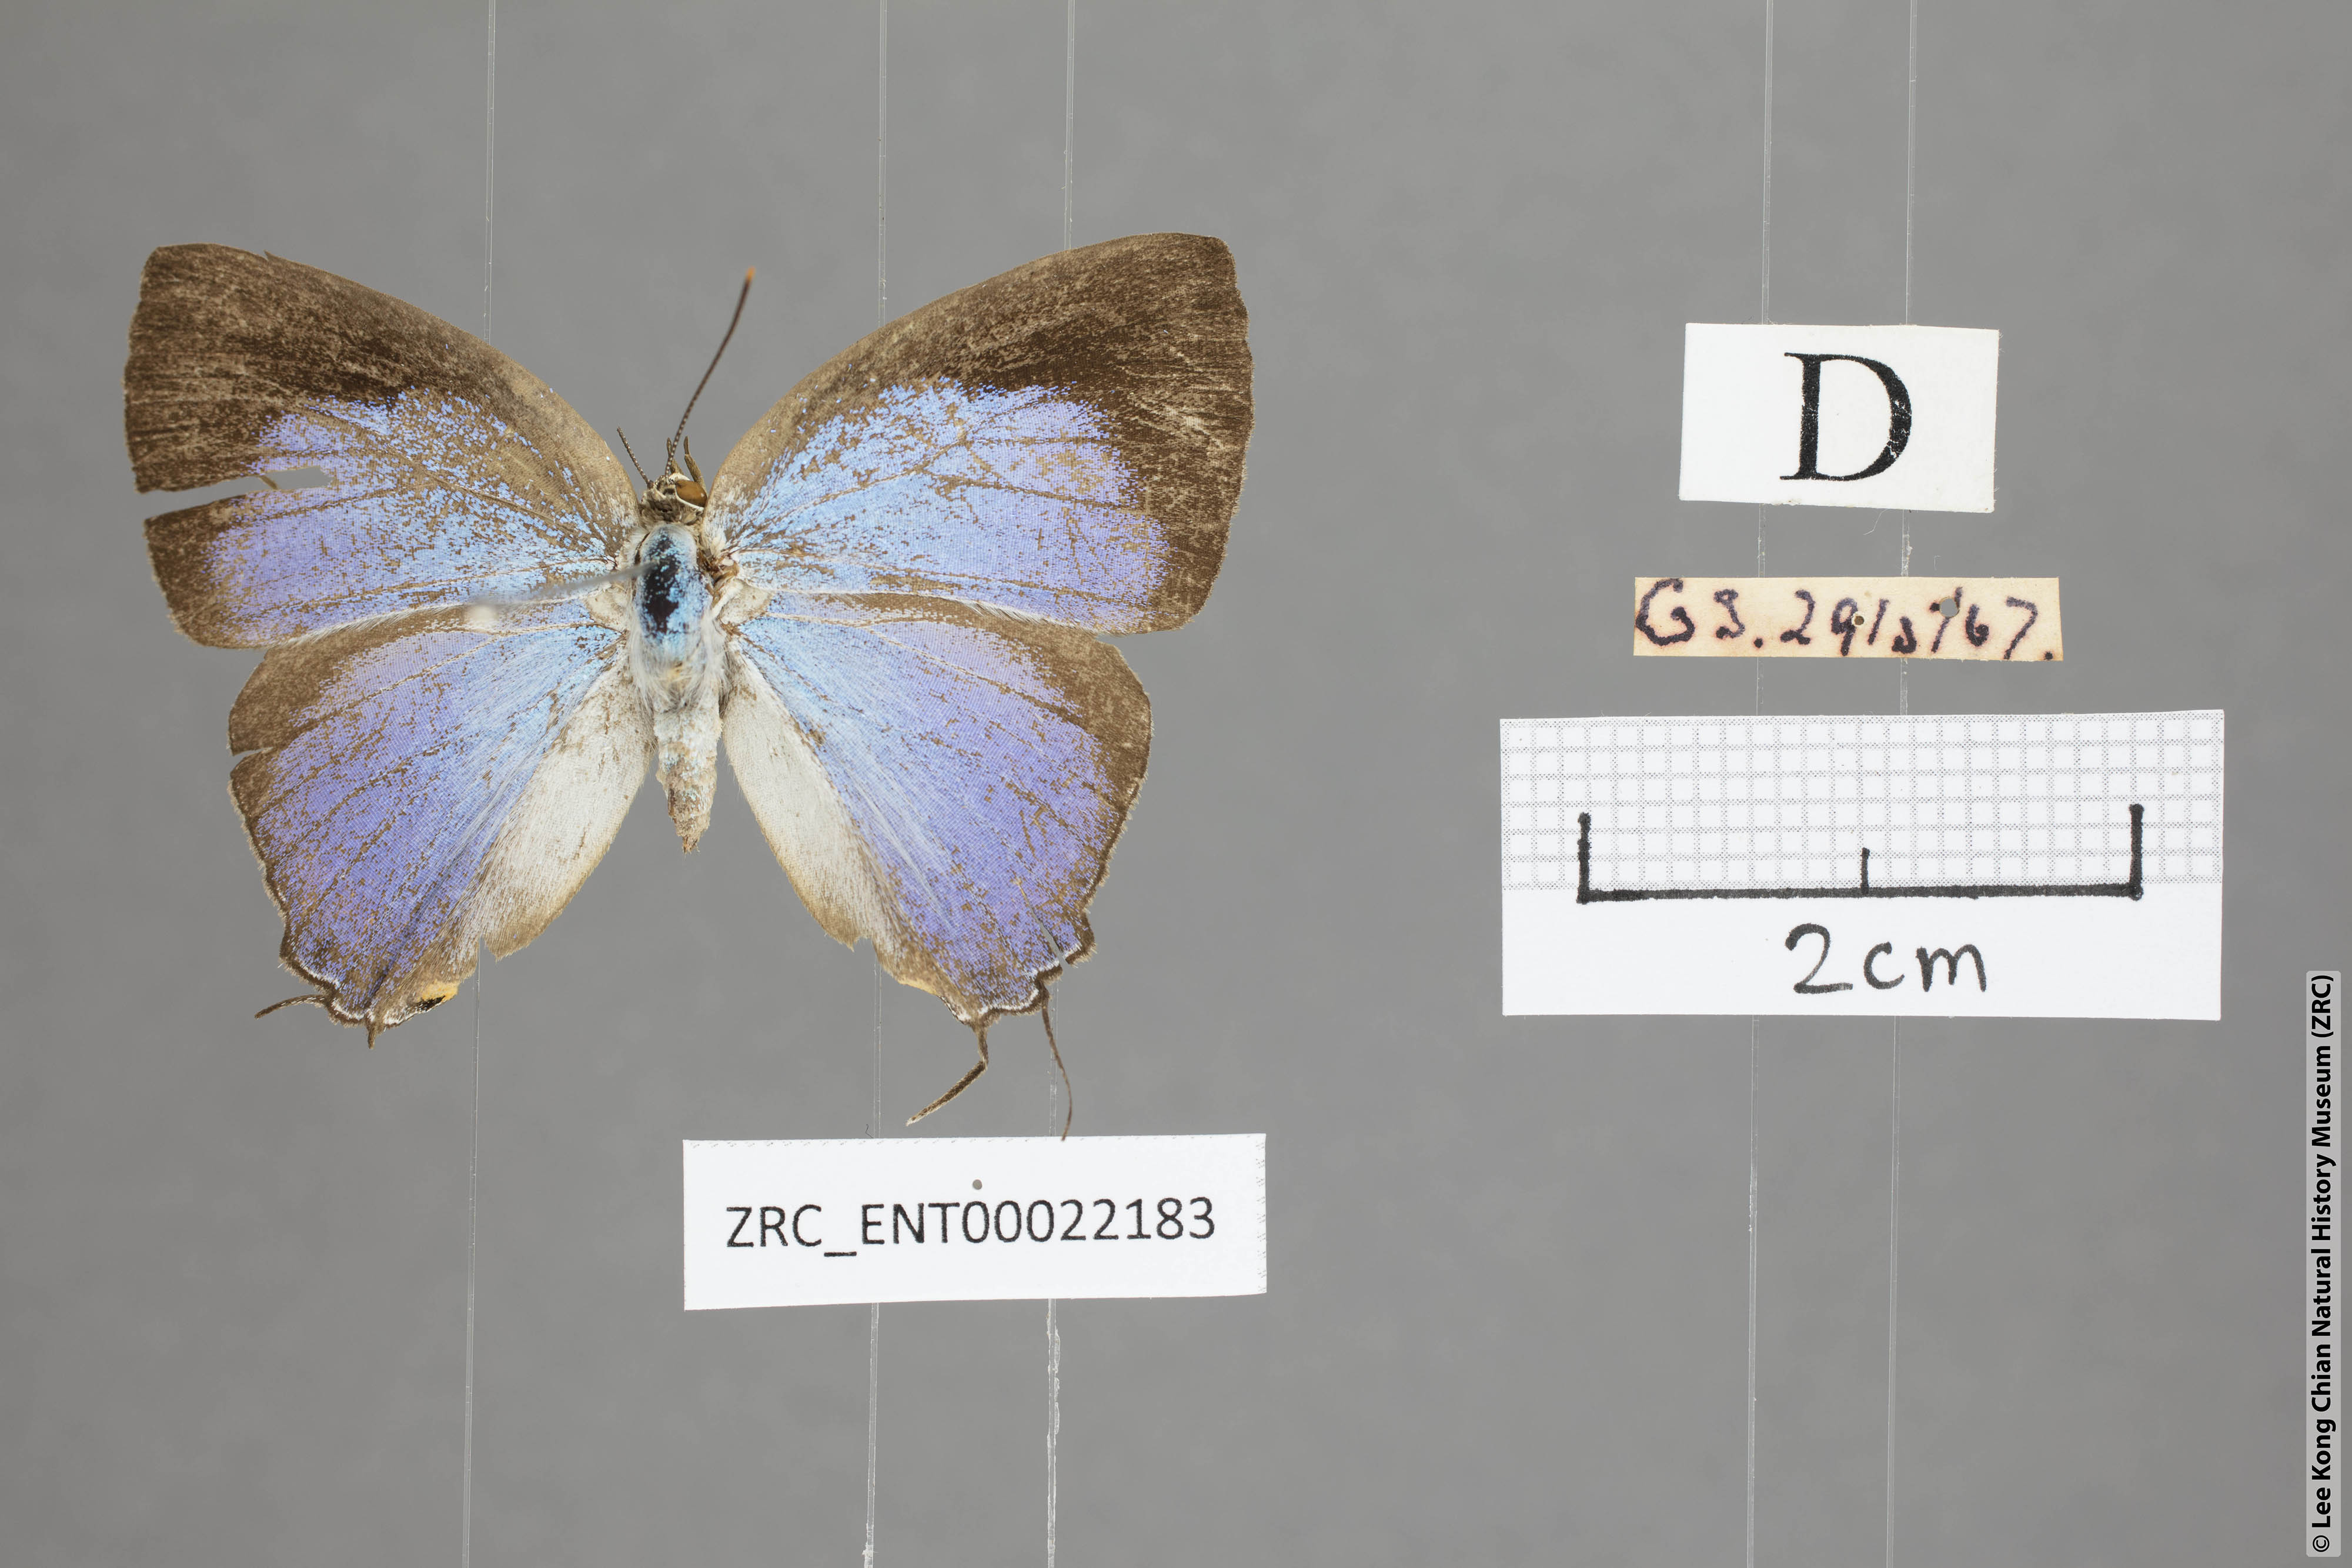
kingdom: Animalia
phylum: Arthropoda
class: Insecta
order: Lepidoptera
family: Lycaenidae
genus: Tajuria
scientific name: Tajuria deudaix
